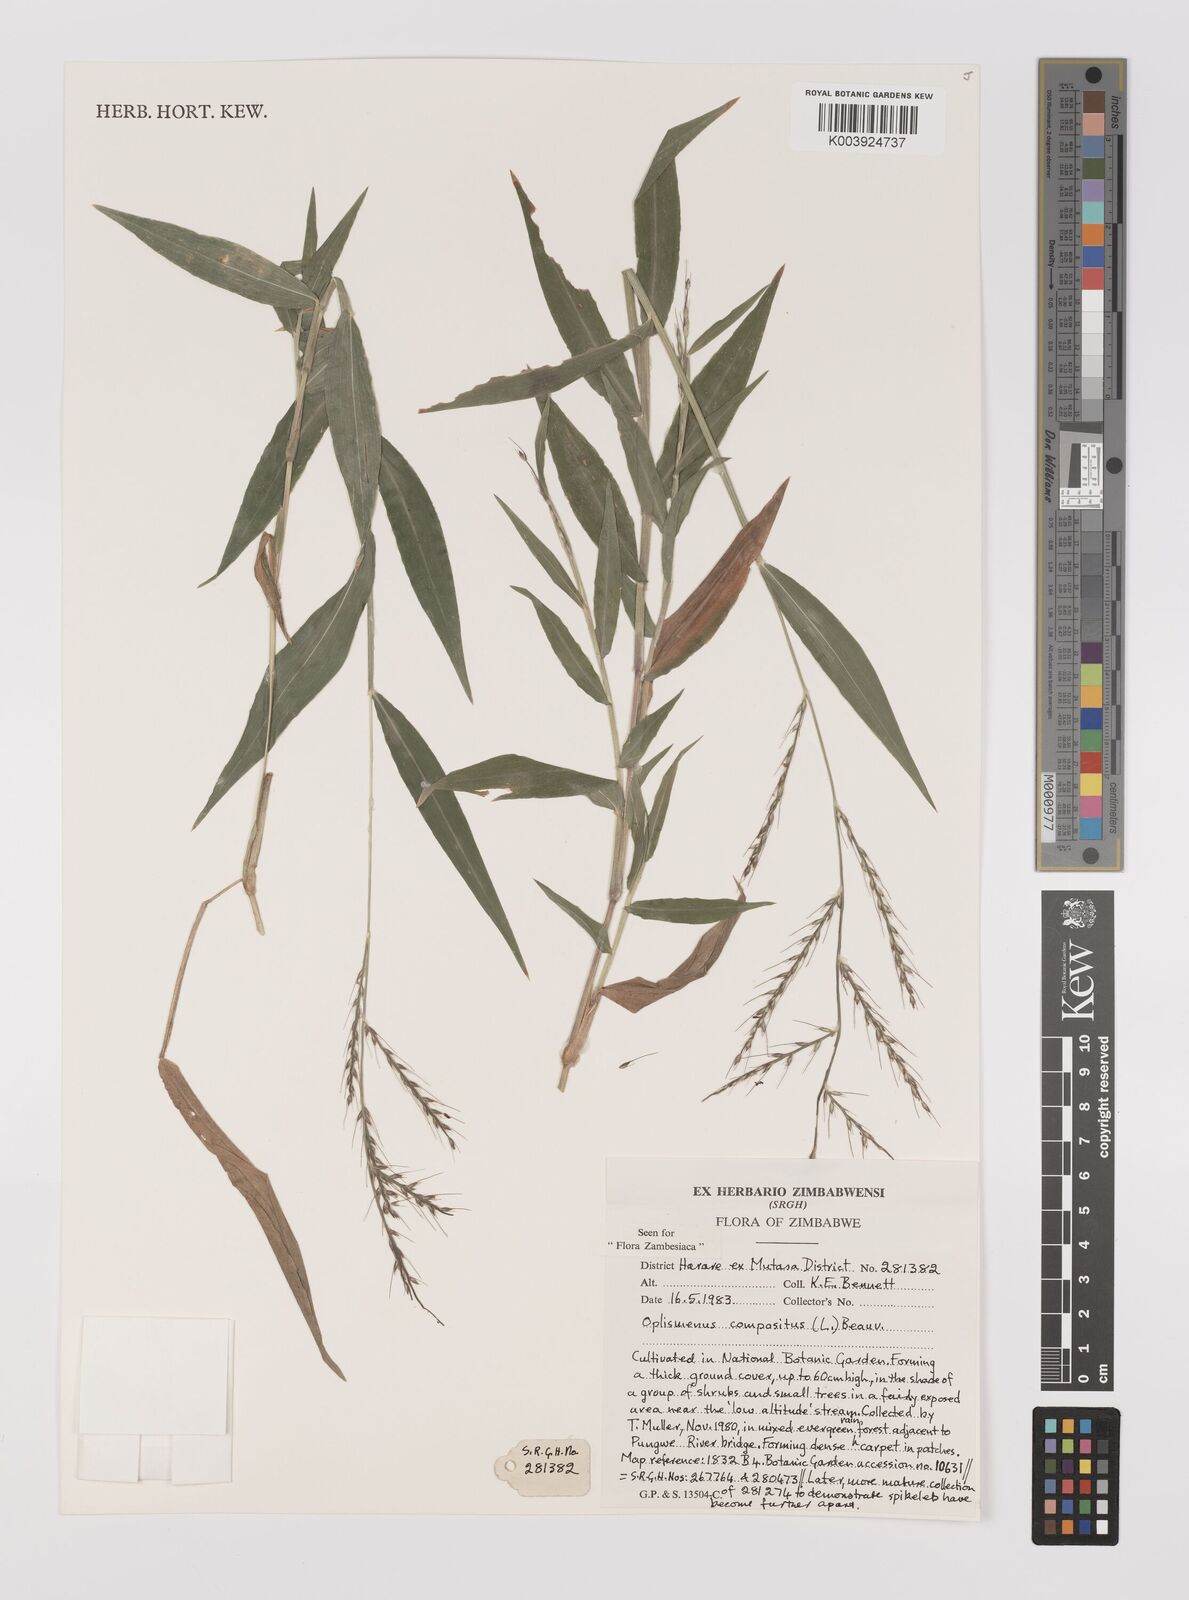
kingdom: Plantae
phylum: Tracheophyta
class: Liliopsida
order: Poales
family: Poaceae
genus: Oplismenus
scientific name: Oplismenus compositus
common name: Running mountain grass
